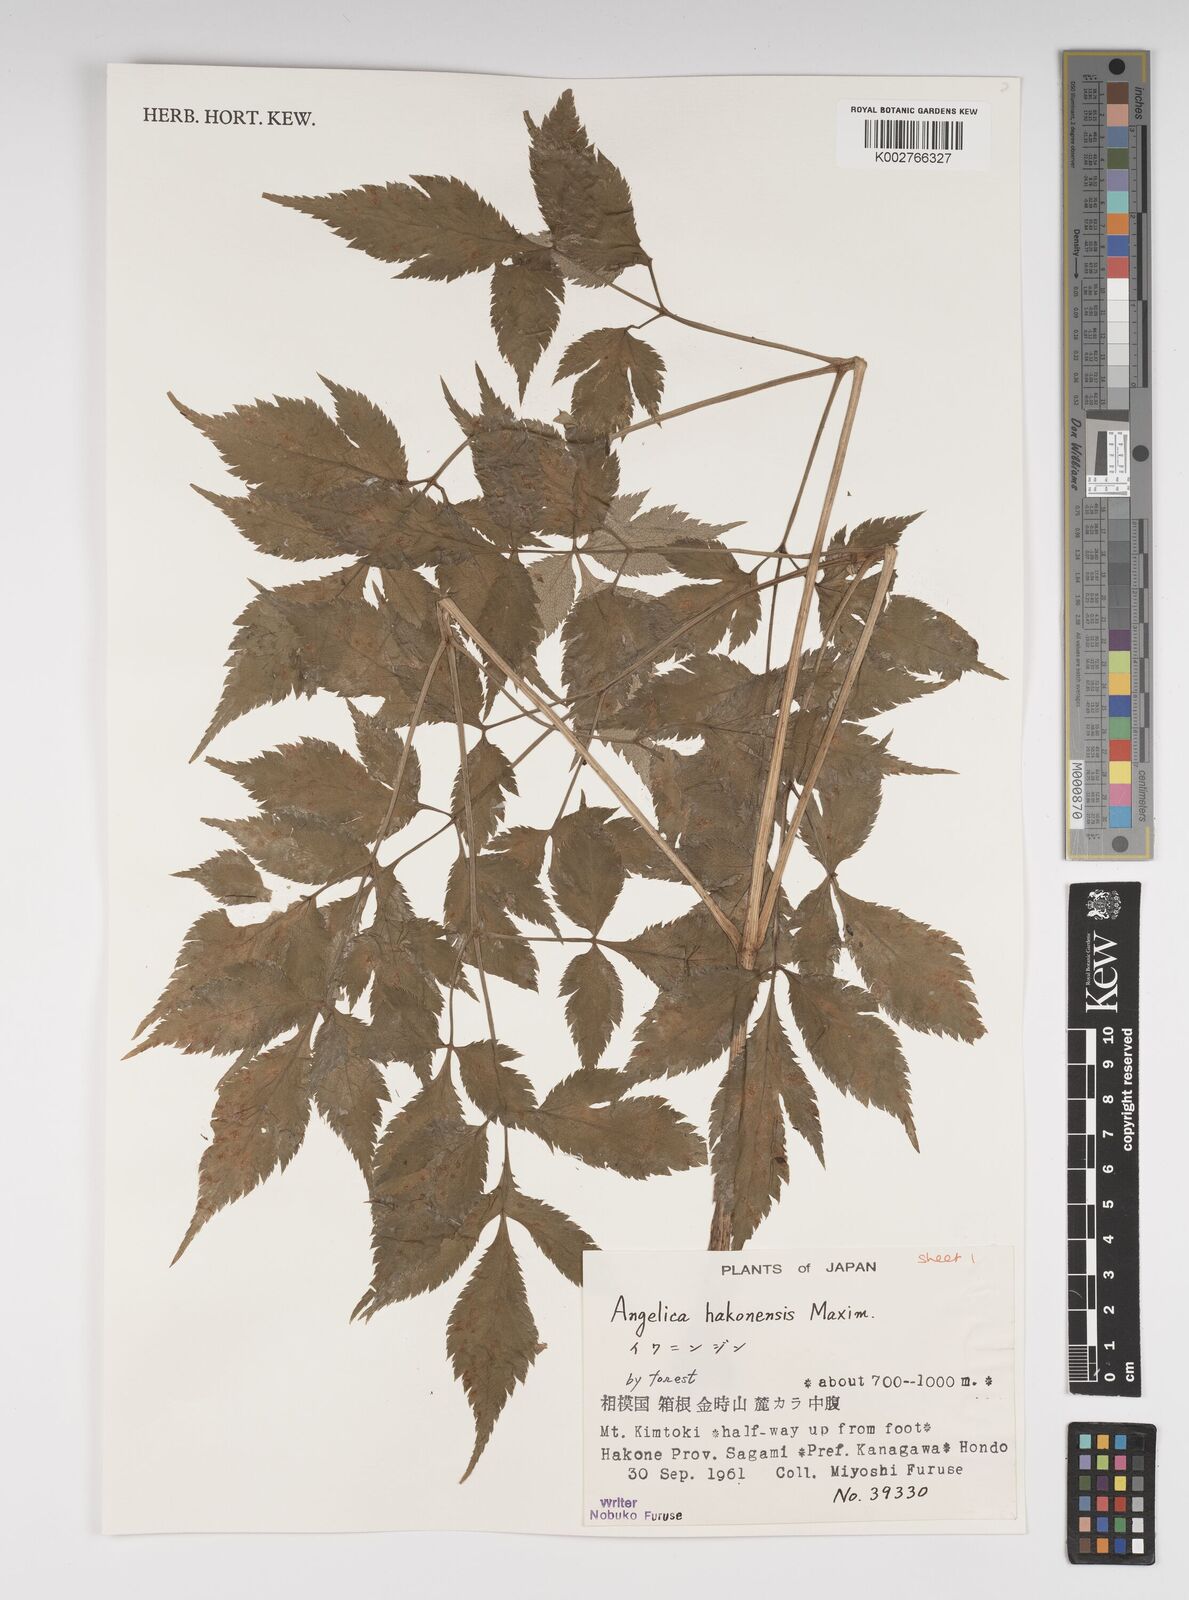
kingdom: Plantae
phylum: Tracheophyta
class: Magnoliopsida
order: Apiales
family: Apiaceae
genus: Angelica
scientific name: Angelica hakonensis
